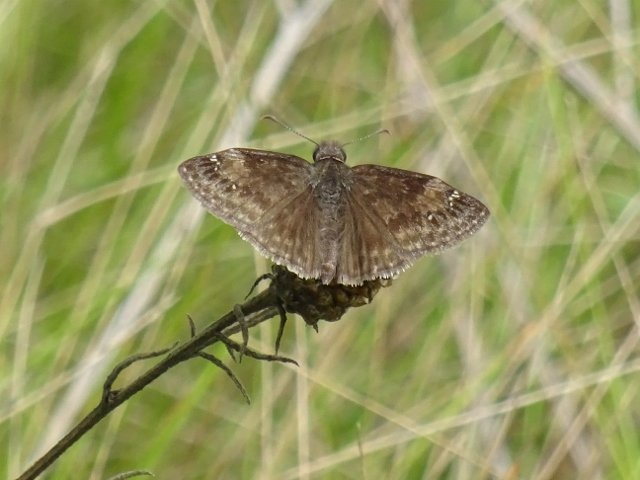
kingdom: Animalia
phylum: Arthropoda
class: Insecta
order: Lepidoptera
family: Hesperiidae
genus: Gesta
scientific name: Gesta
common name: Wild Indigo Duskywing
